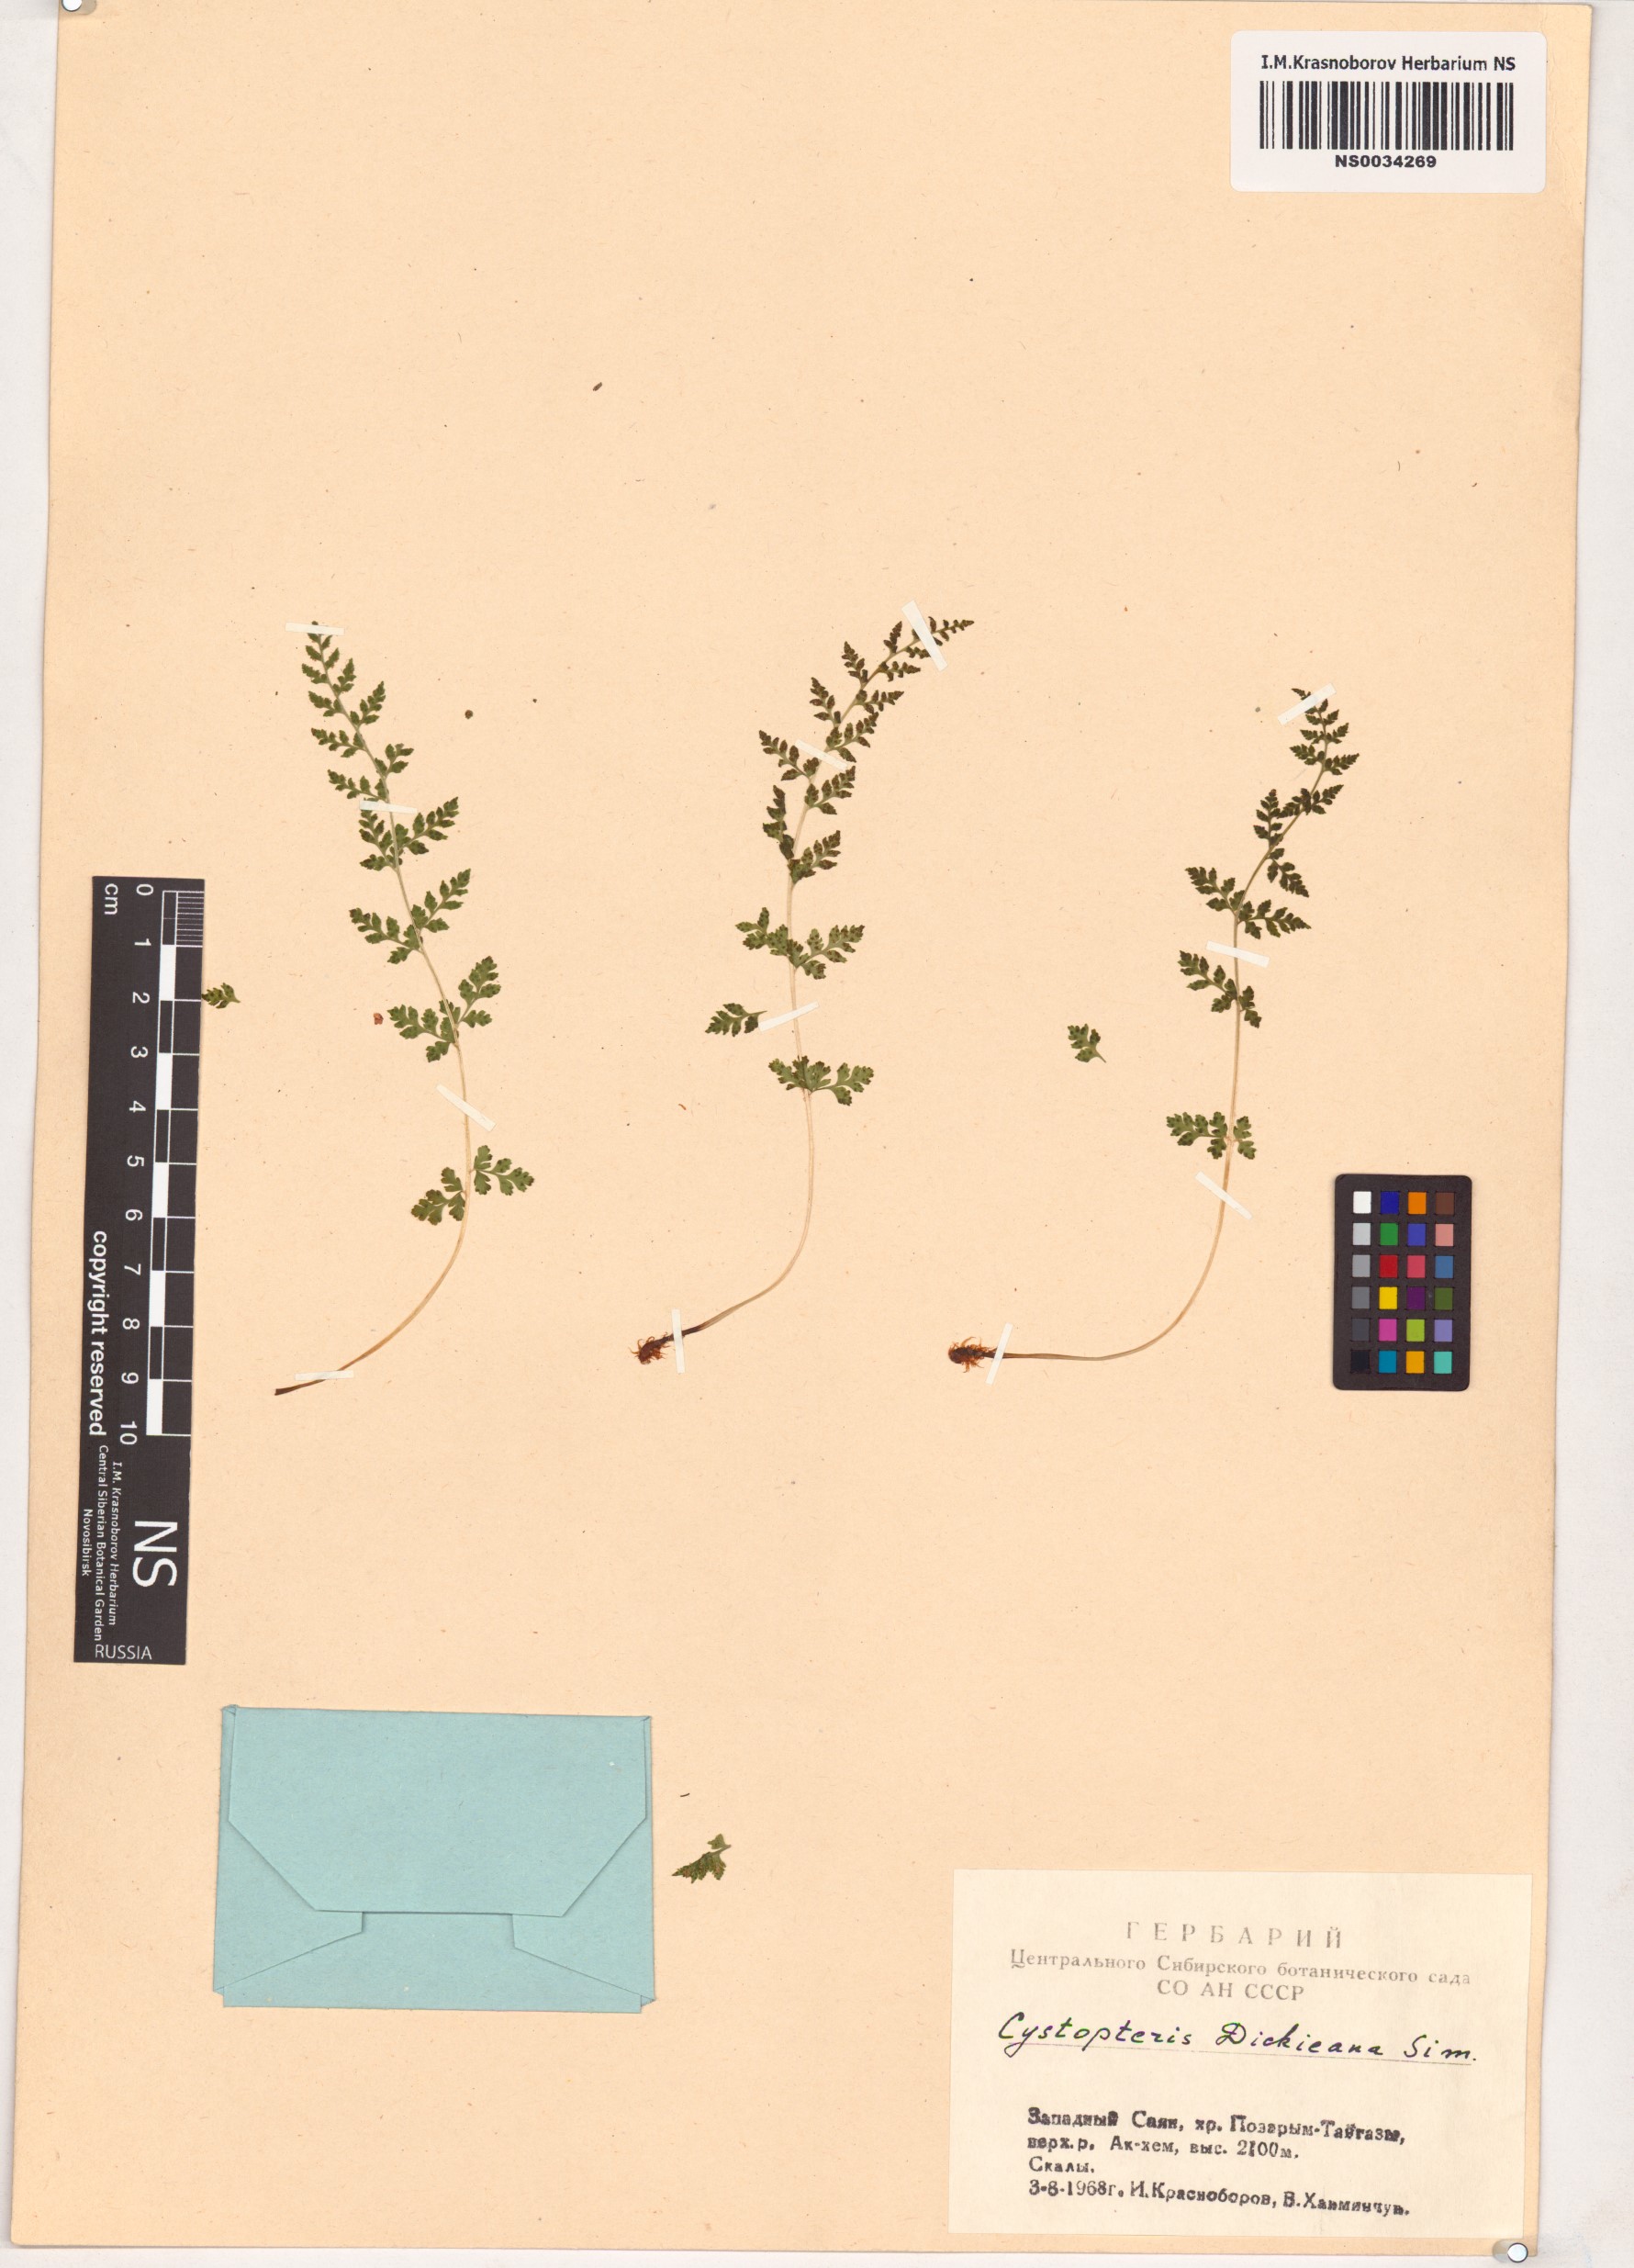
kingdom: Plantae
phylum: Tracheophyta
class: Polypodiopsida
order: Polypodiales
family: Cystopteridaceae
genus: Cystopteris
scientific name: Cystopteris dickieana
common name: Dickie's bladder-fern
